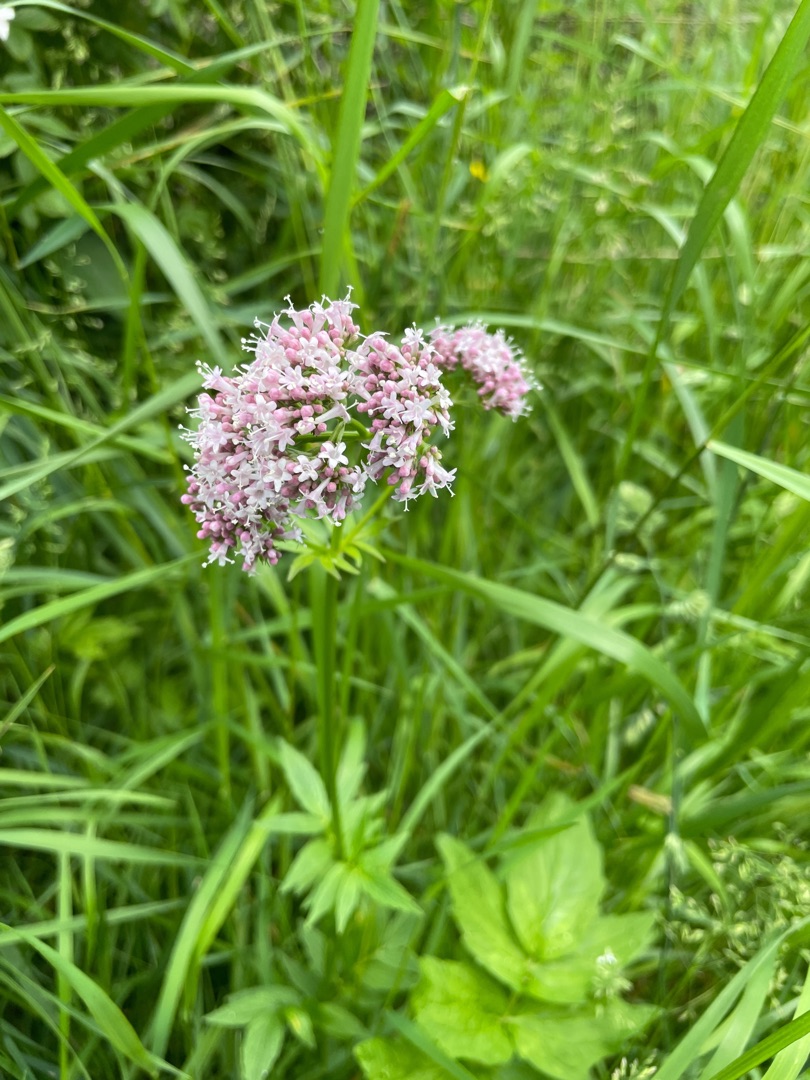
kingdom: Plantae
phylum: Tracheophyta
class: Magnoliopsida
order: Dipsacales
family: Caprifoliaceae
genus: Valeriana
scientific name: Valeriana sambucifolia
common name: Hyldebladet baldrian
